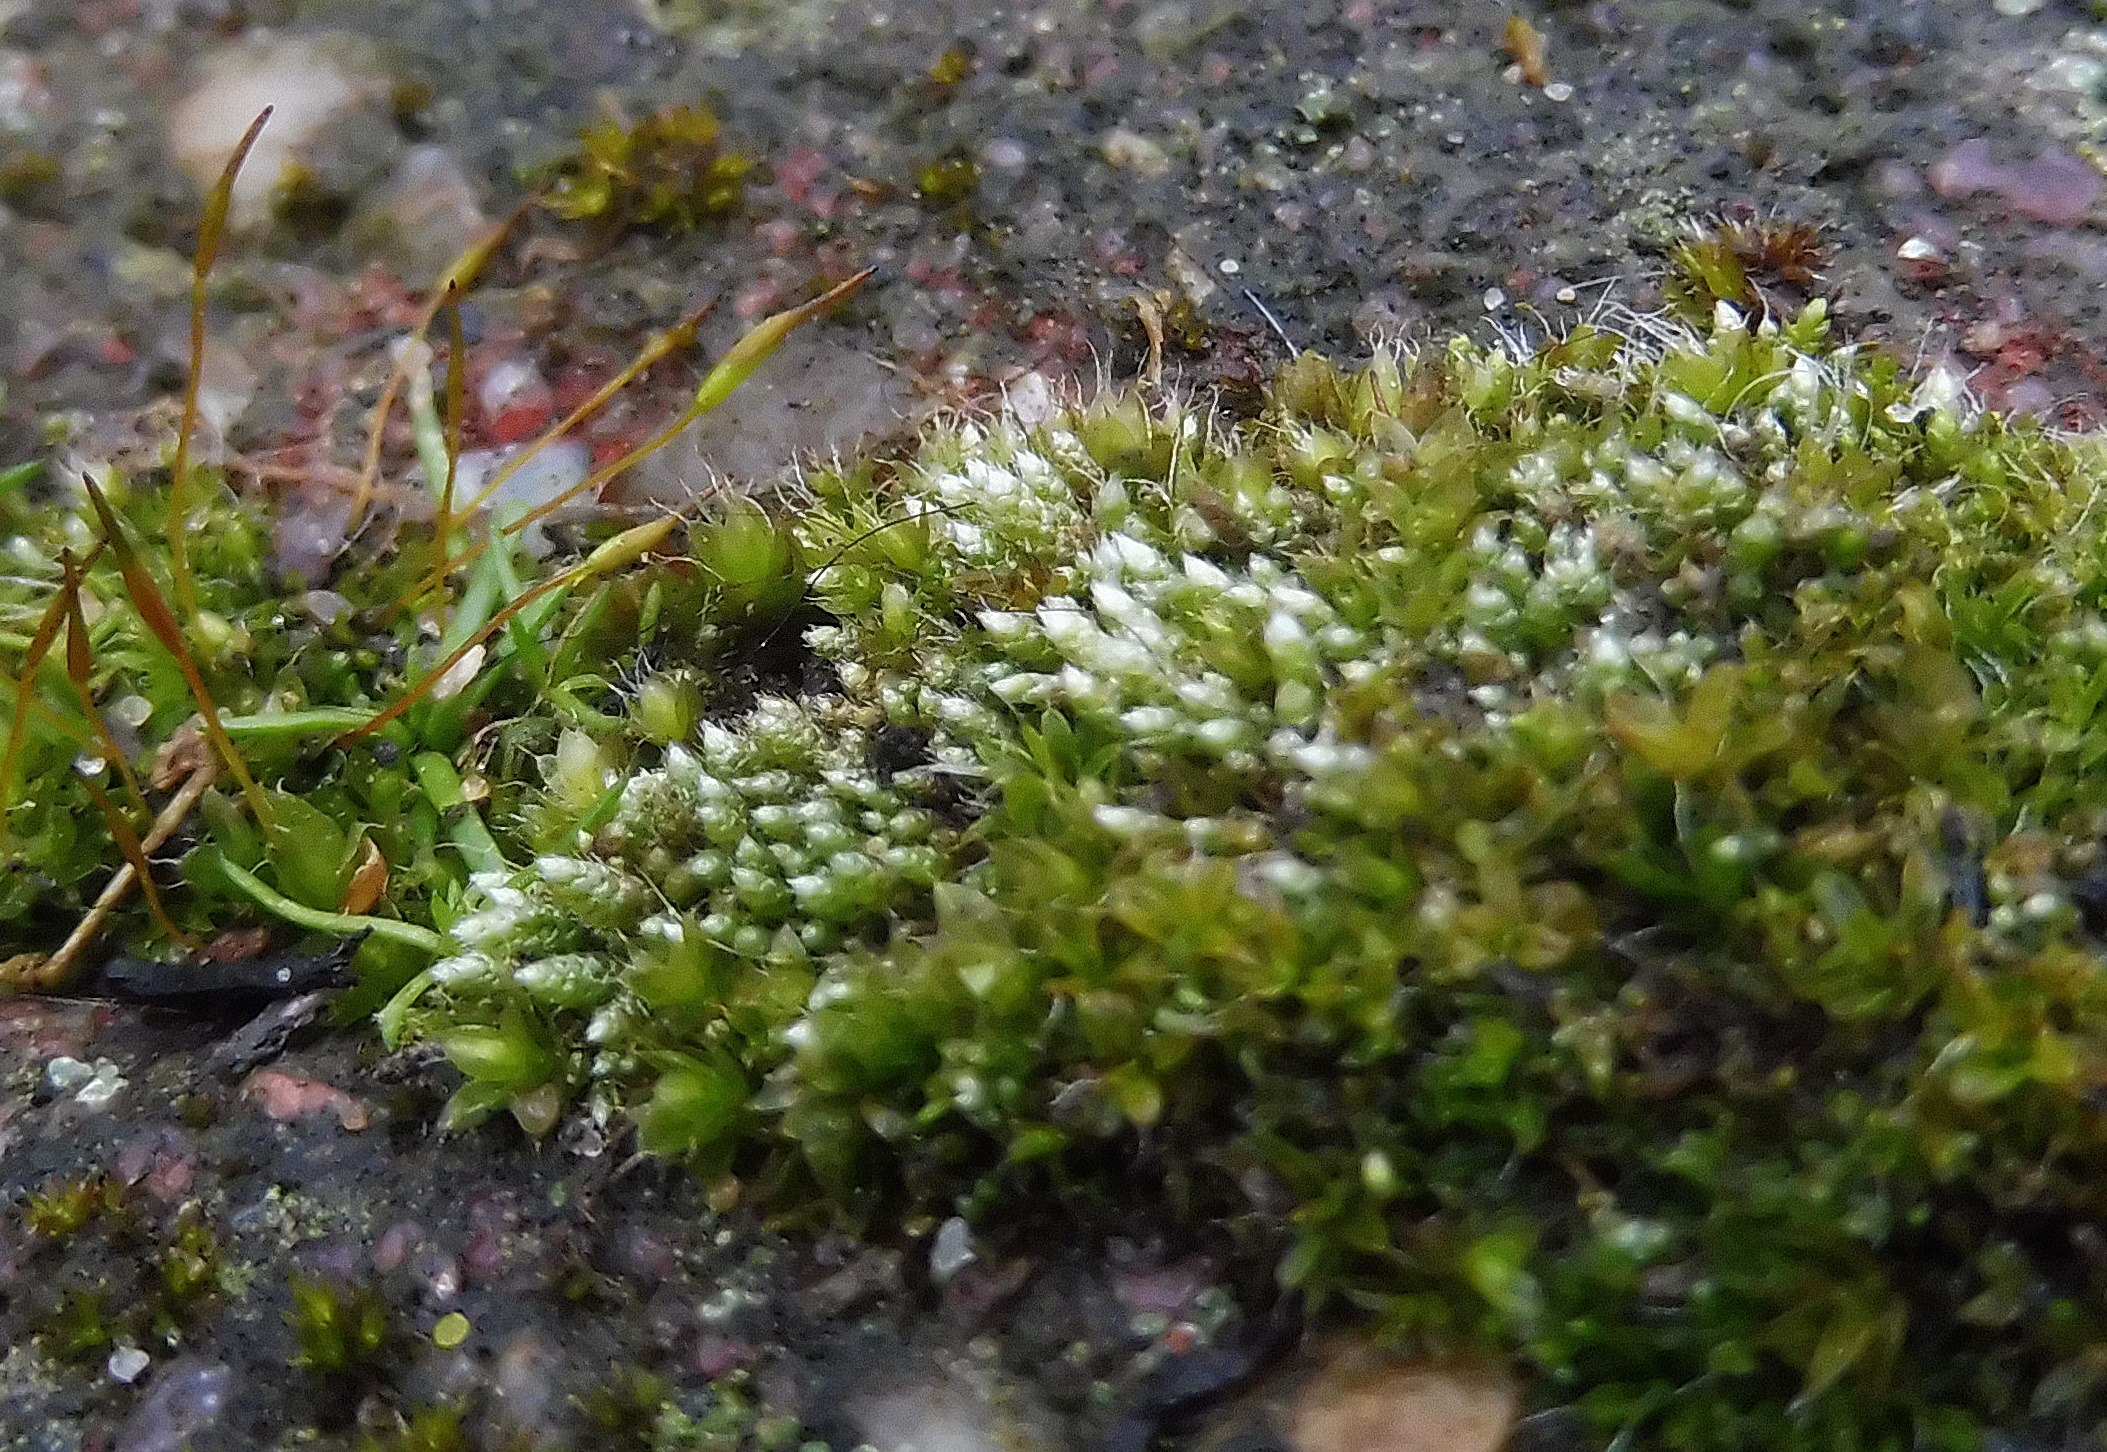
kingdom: Plantae
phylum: Bryophyta
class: Bryopsida
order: Bryales
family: Bryaceae
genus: Bryum
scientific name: Bryum argenteum
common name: Sølv-bryum
